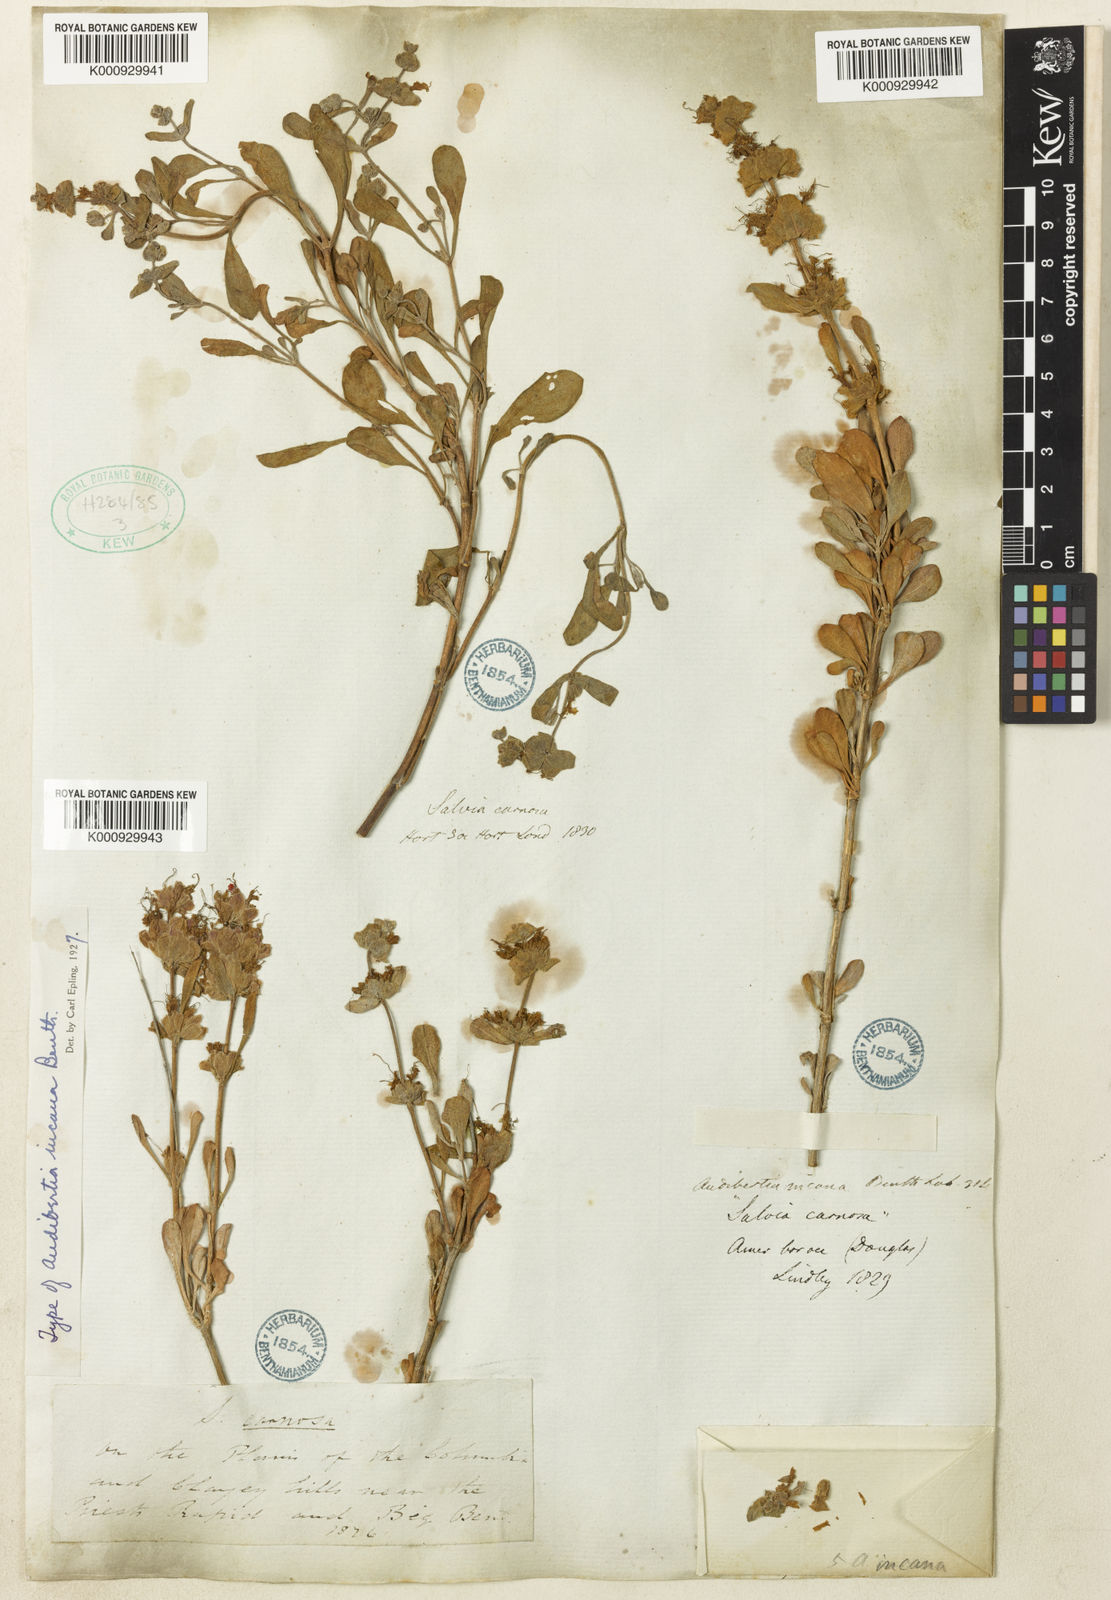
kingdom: Plantae
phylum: Tracheophyta
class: Magnoliopsida
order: Lamiales
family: Lamiaceae
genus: Salvia
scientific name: Salvia
